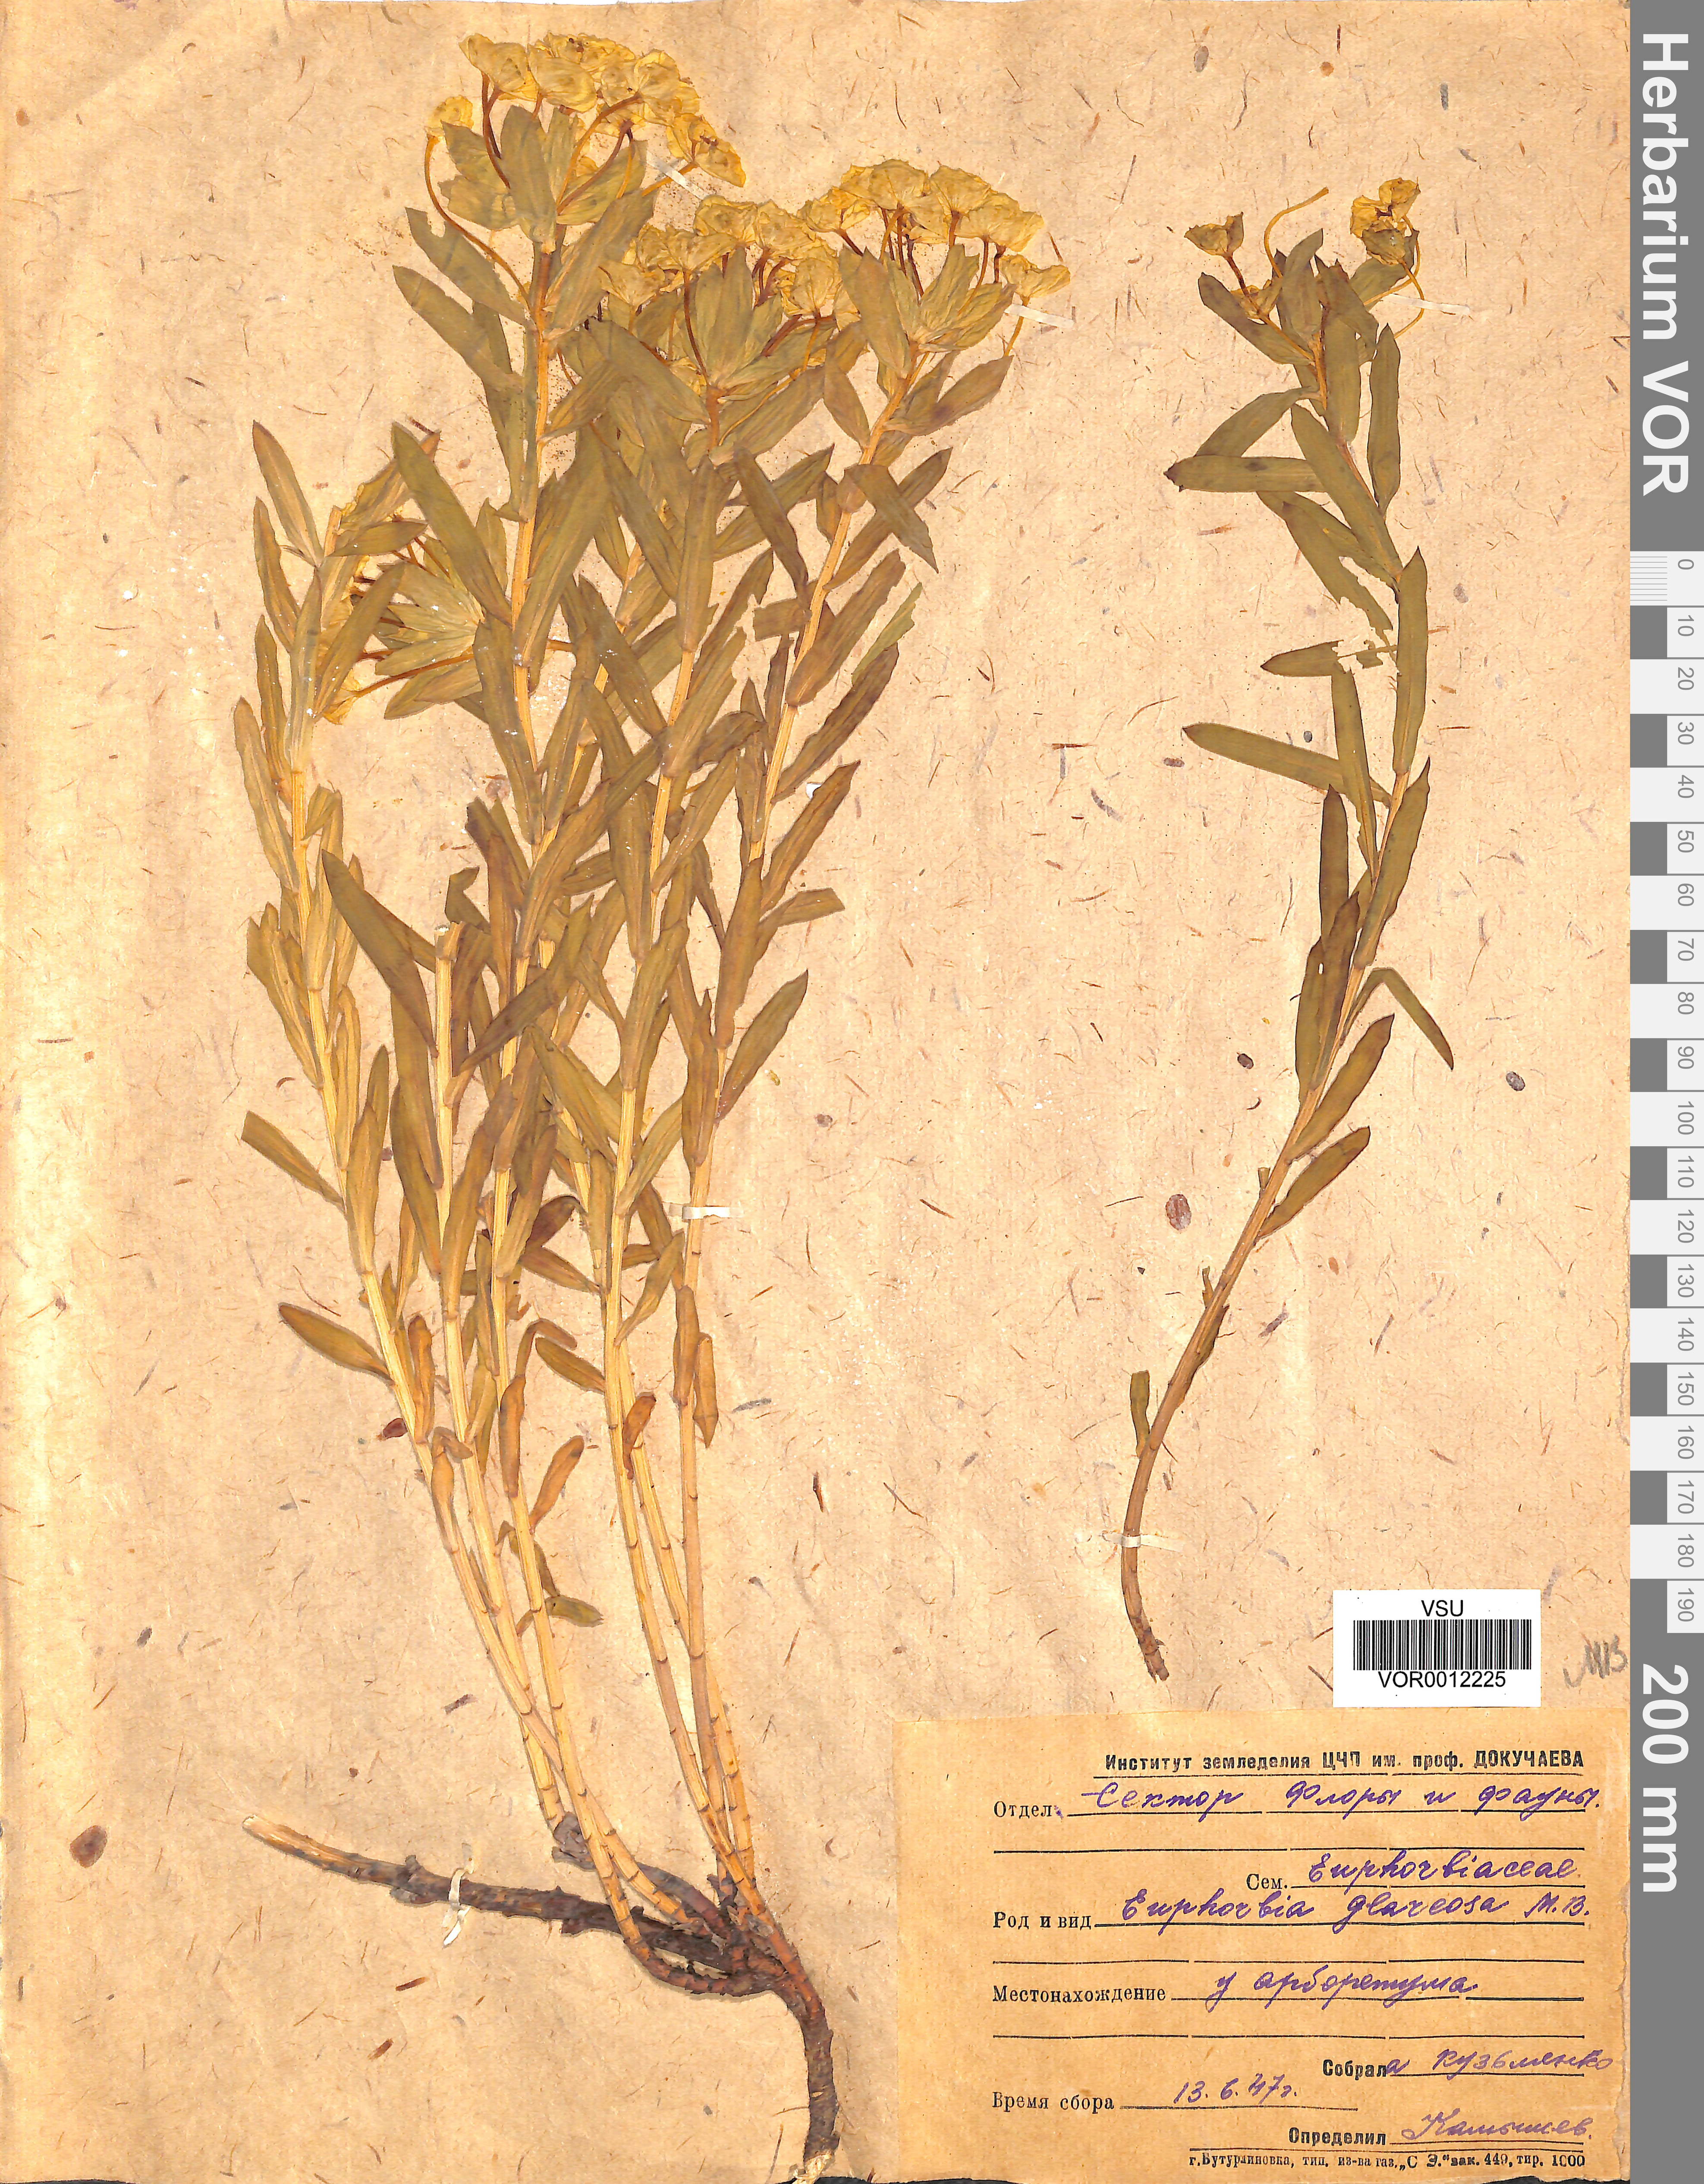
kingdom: Plantae
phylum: Tracheophyta
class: Magnoliopsida
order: Malpighiales
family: Euphorbiaceae
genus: Euphorbia
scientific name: Euphorbia stepposa
